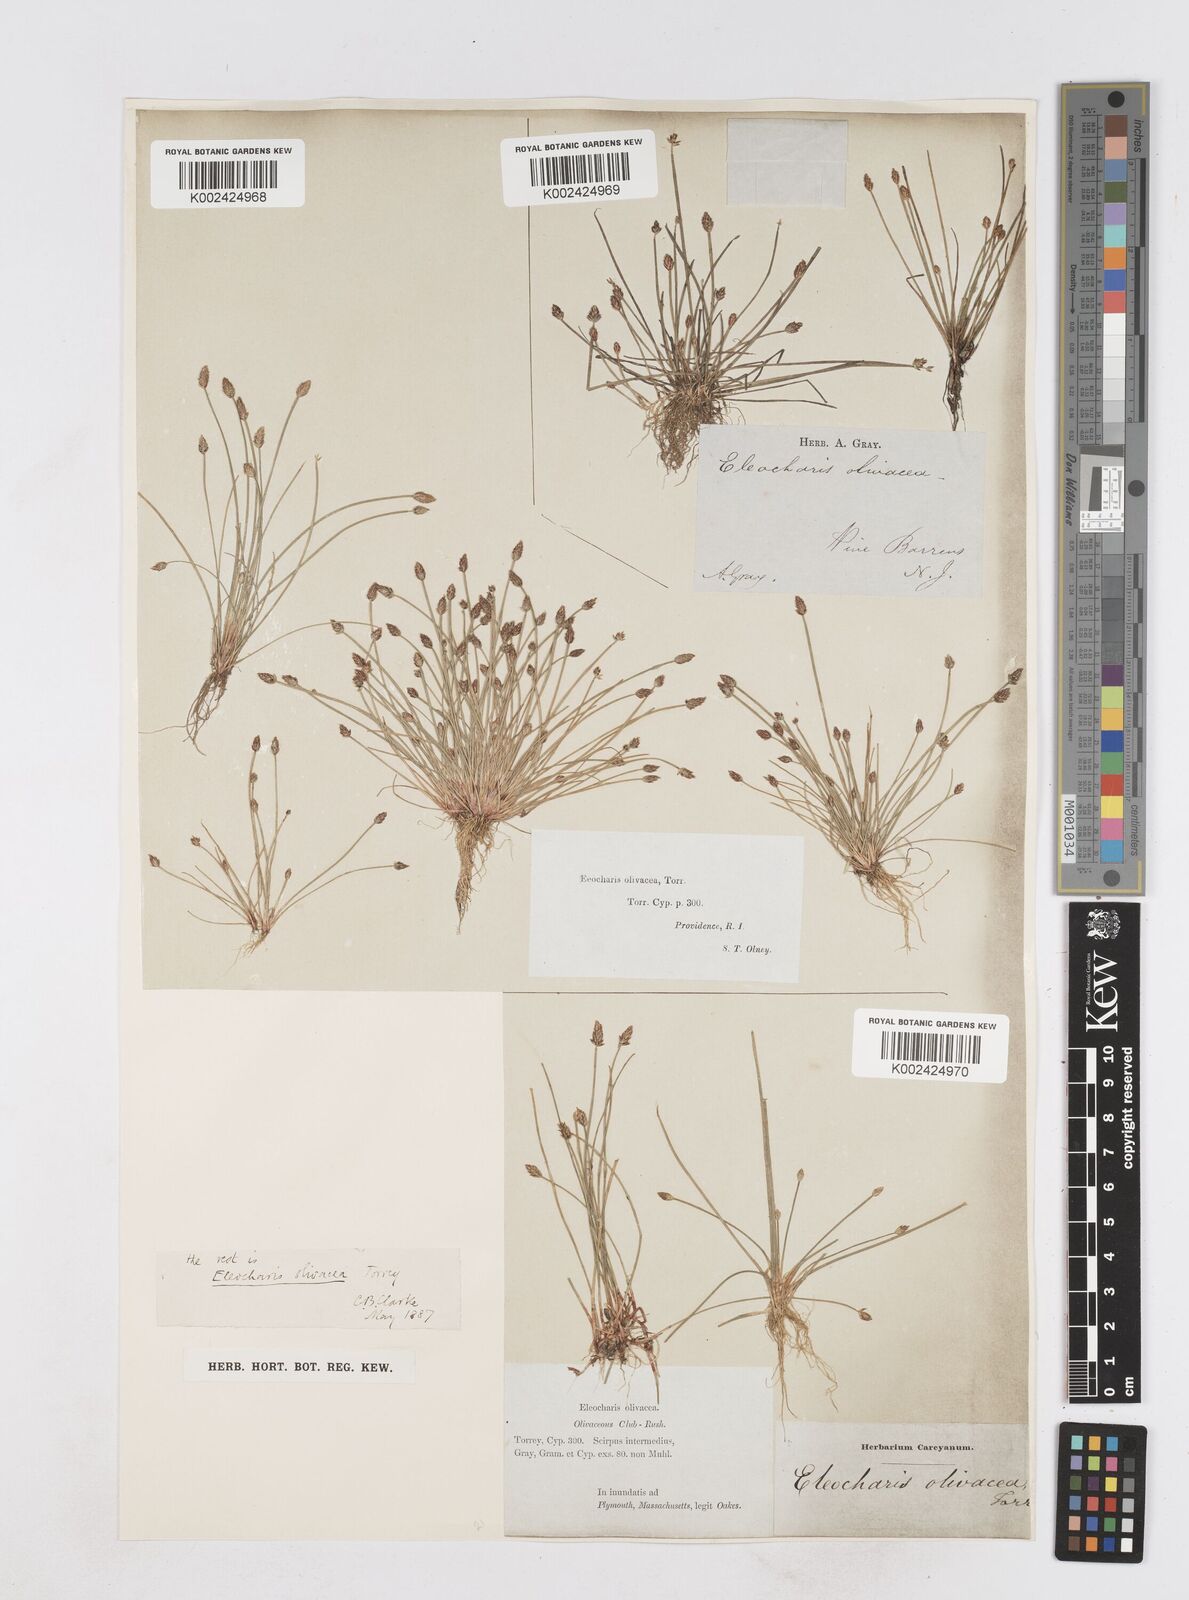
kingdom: Plantae
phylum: Tracheophyta
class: Liliopsida
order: Poales
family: Cyperaceae
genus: Eleocharis
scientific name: Eleocharis flavescens
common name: Yellow spikerush
